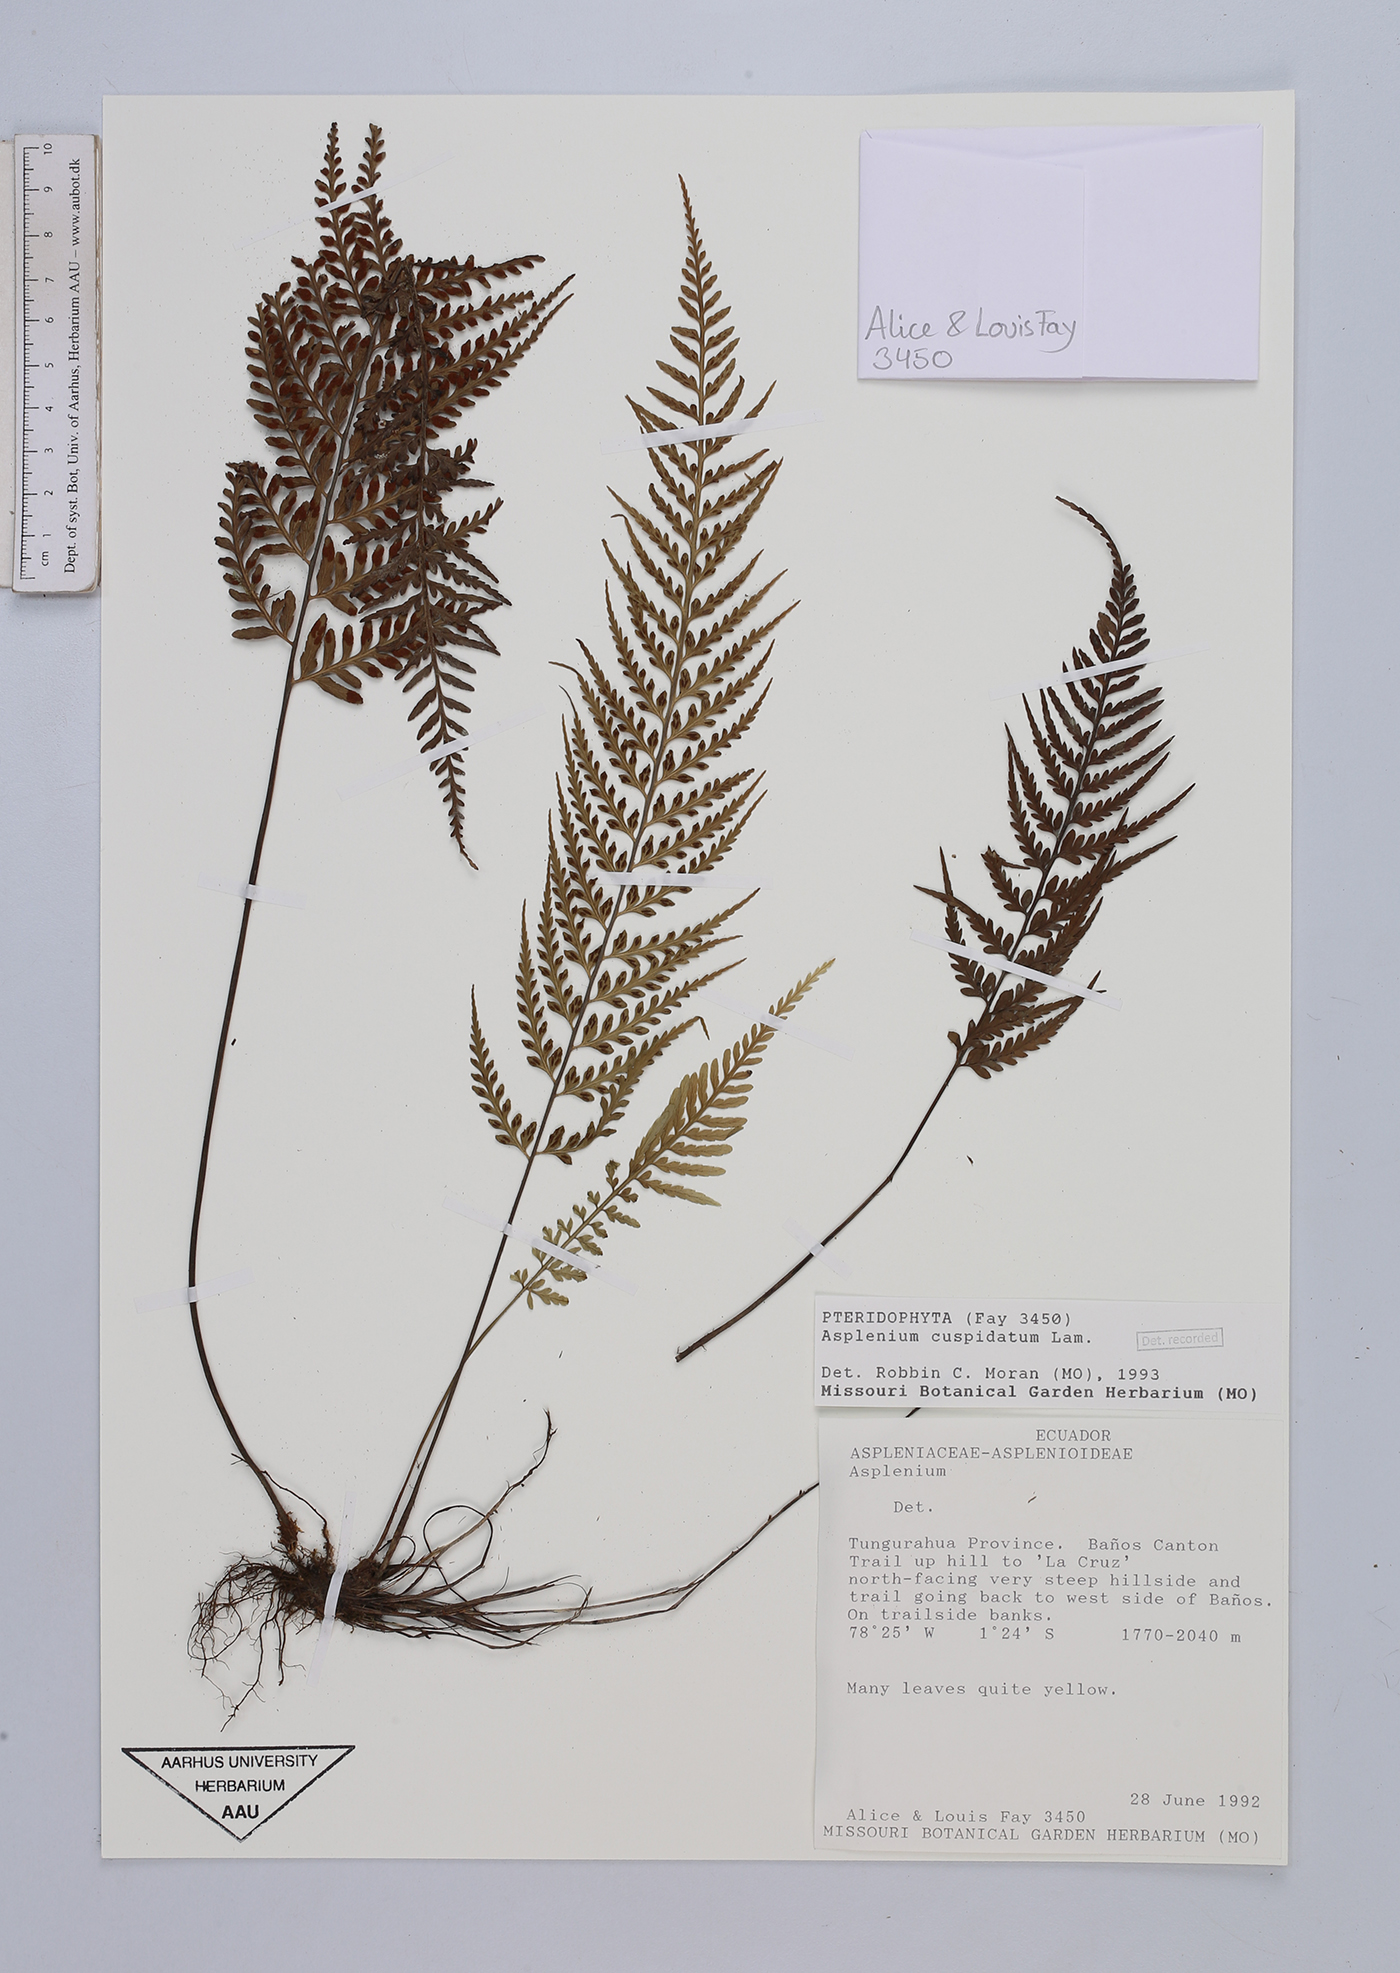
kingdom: Plantae
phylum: Tracheophyta
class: Polypodiopsida
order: Polypodiales
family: Aspleniaceae
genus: Asplenium
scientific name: Asplenium cuspidatum
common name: Eared spleenwort
